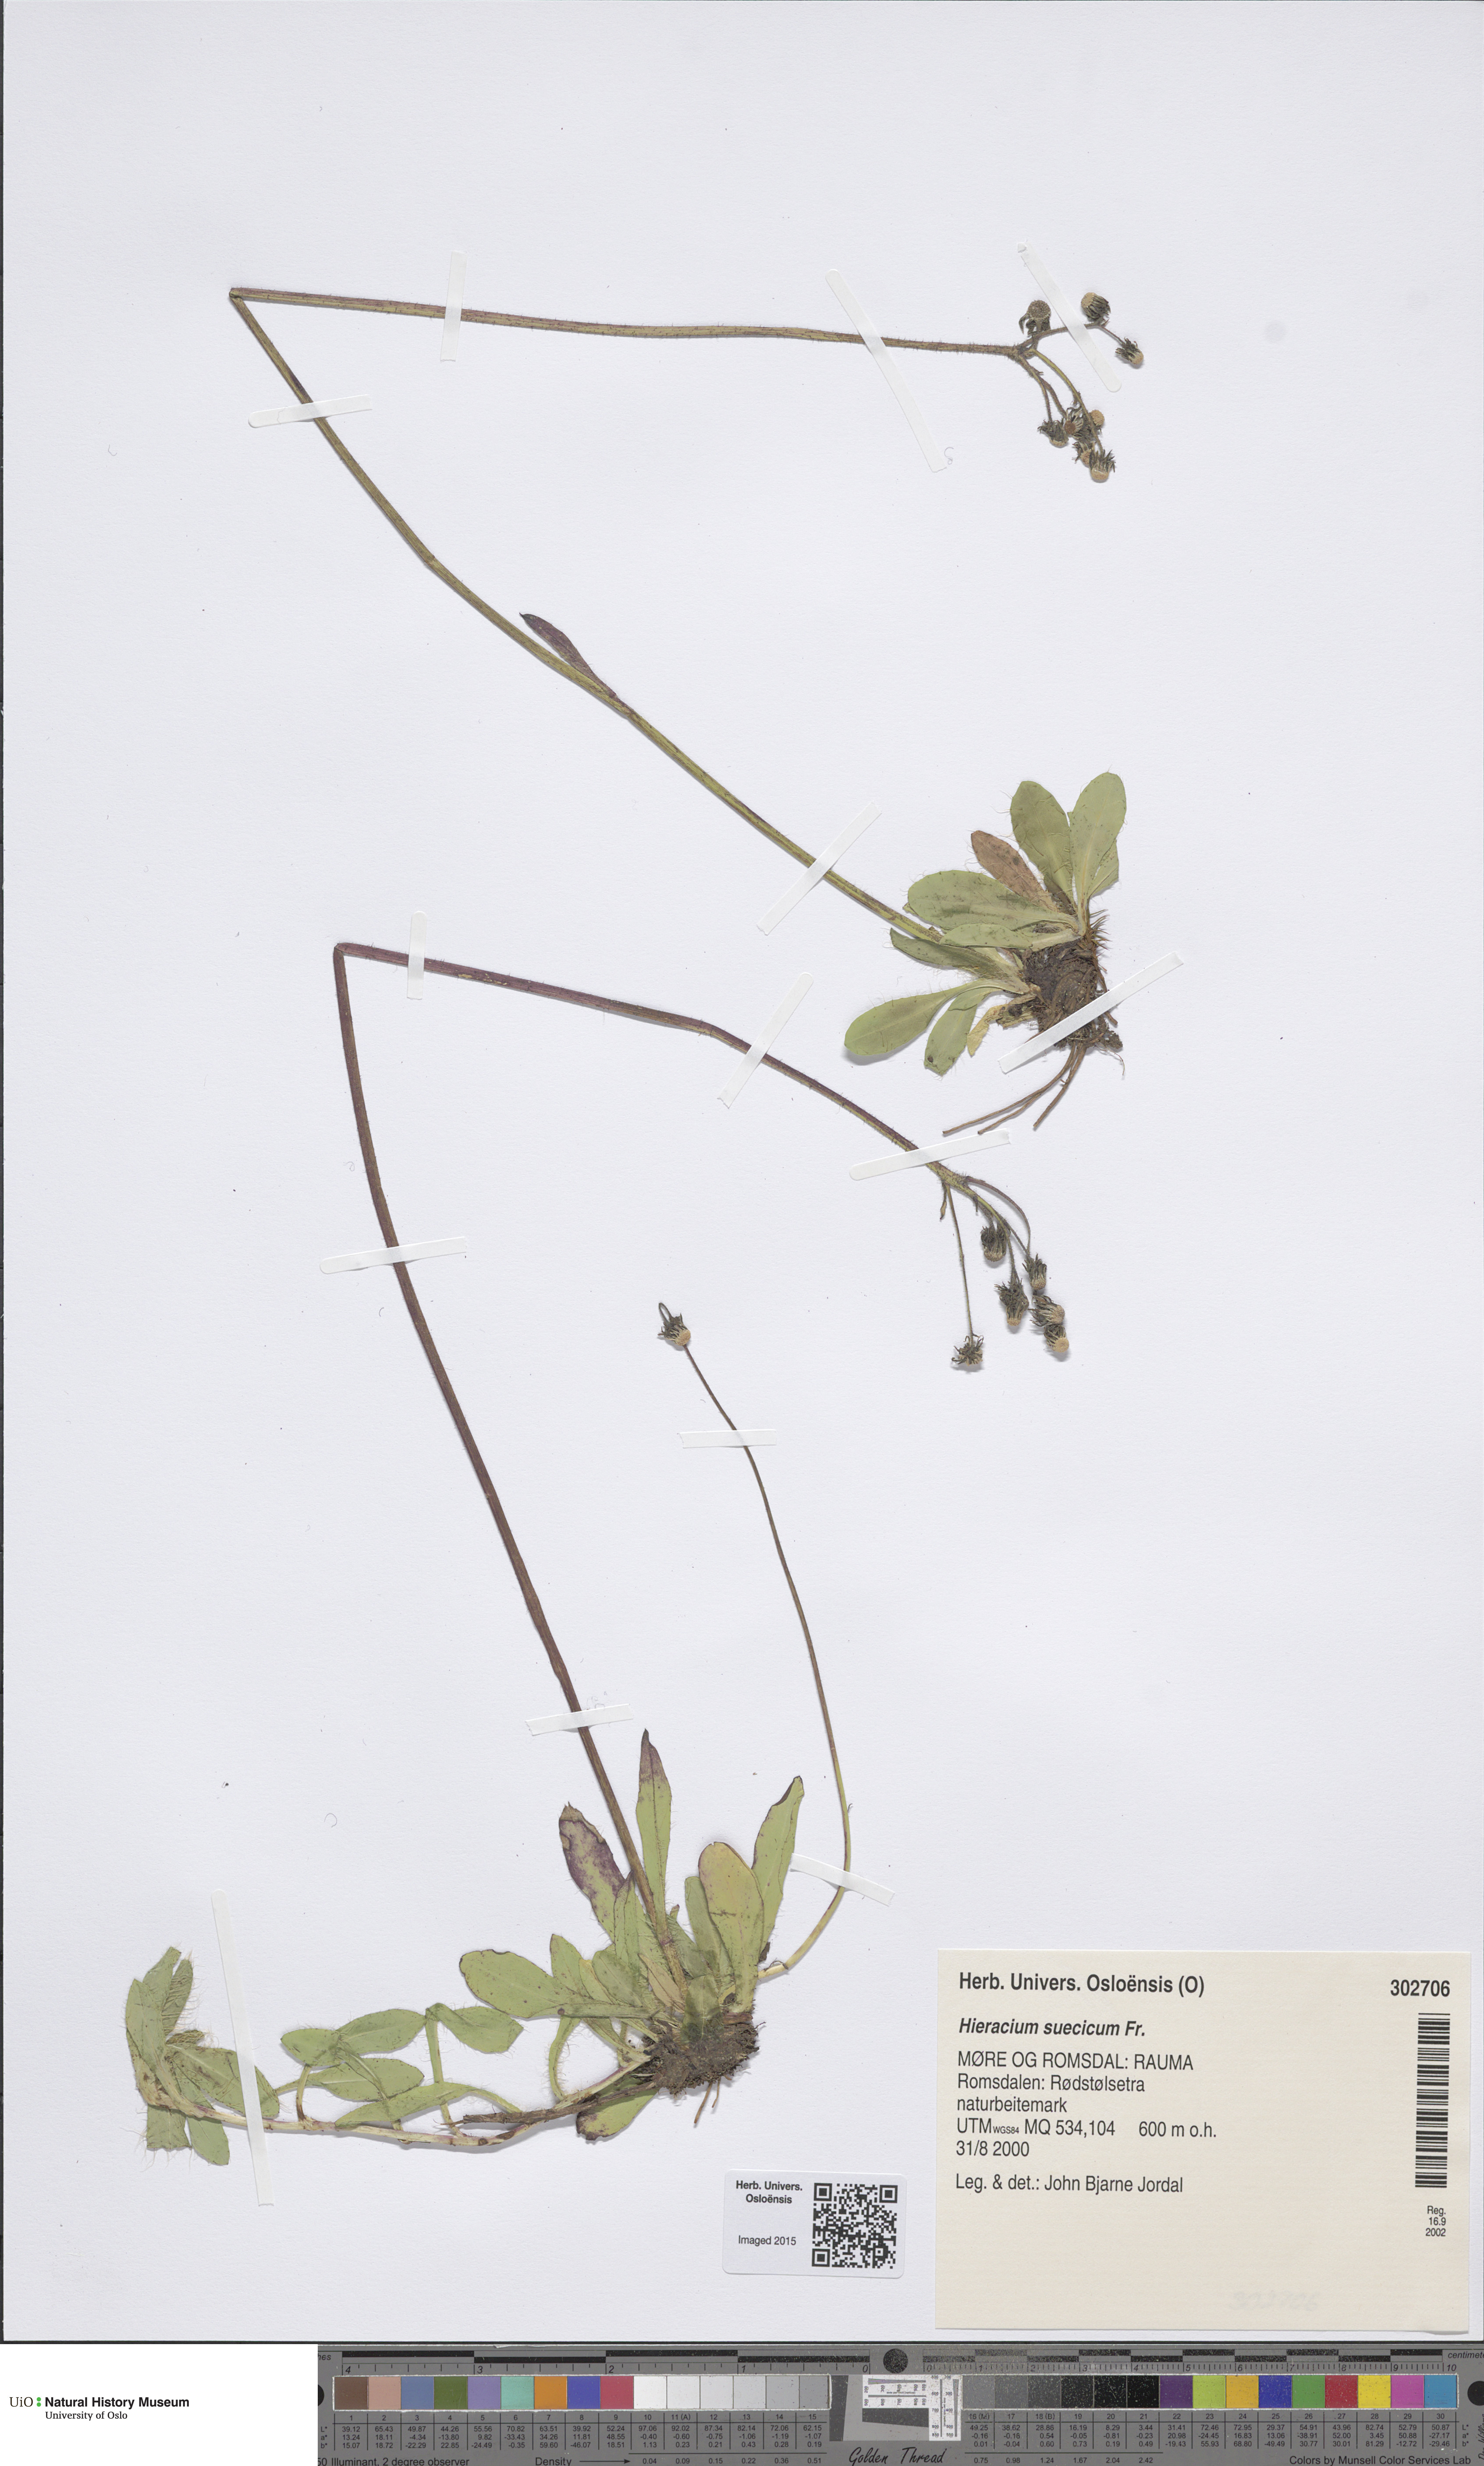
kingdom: Plantae
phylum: Tracheophyta
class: Magnoliopsida
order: Asterales
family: Asteraceae
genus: Pilosella
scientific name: Pilosella dubia
